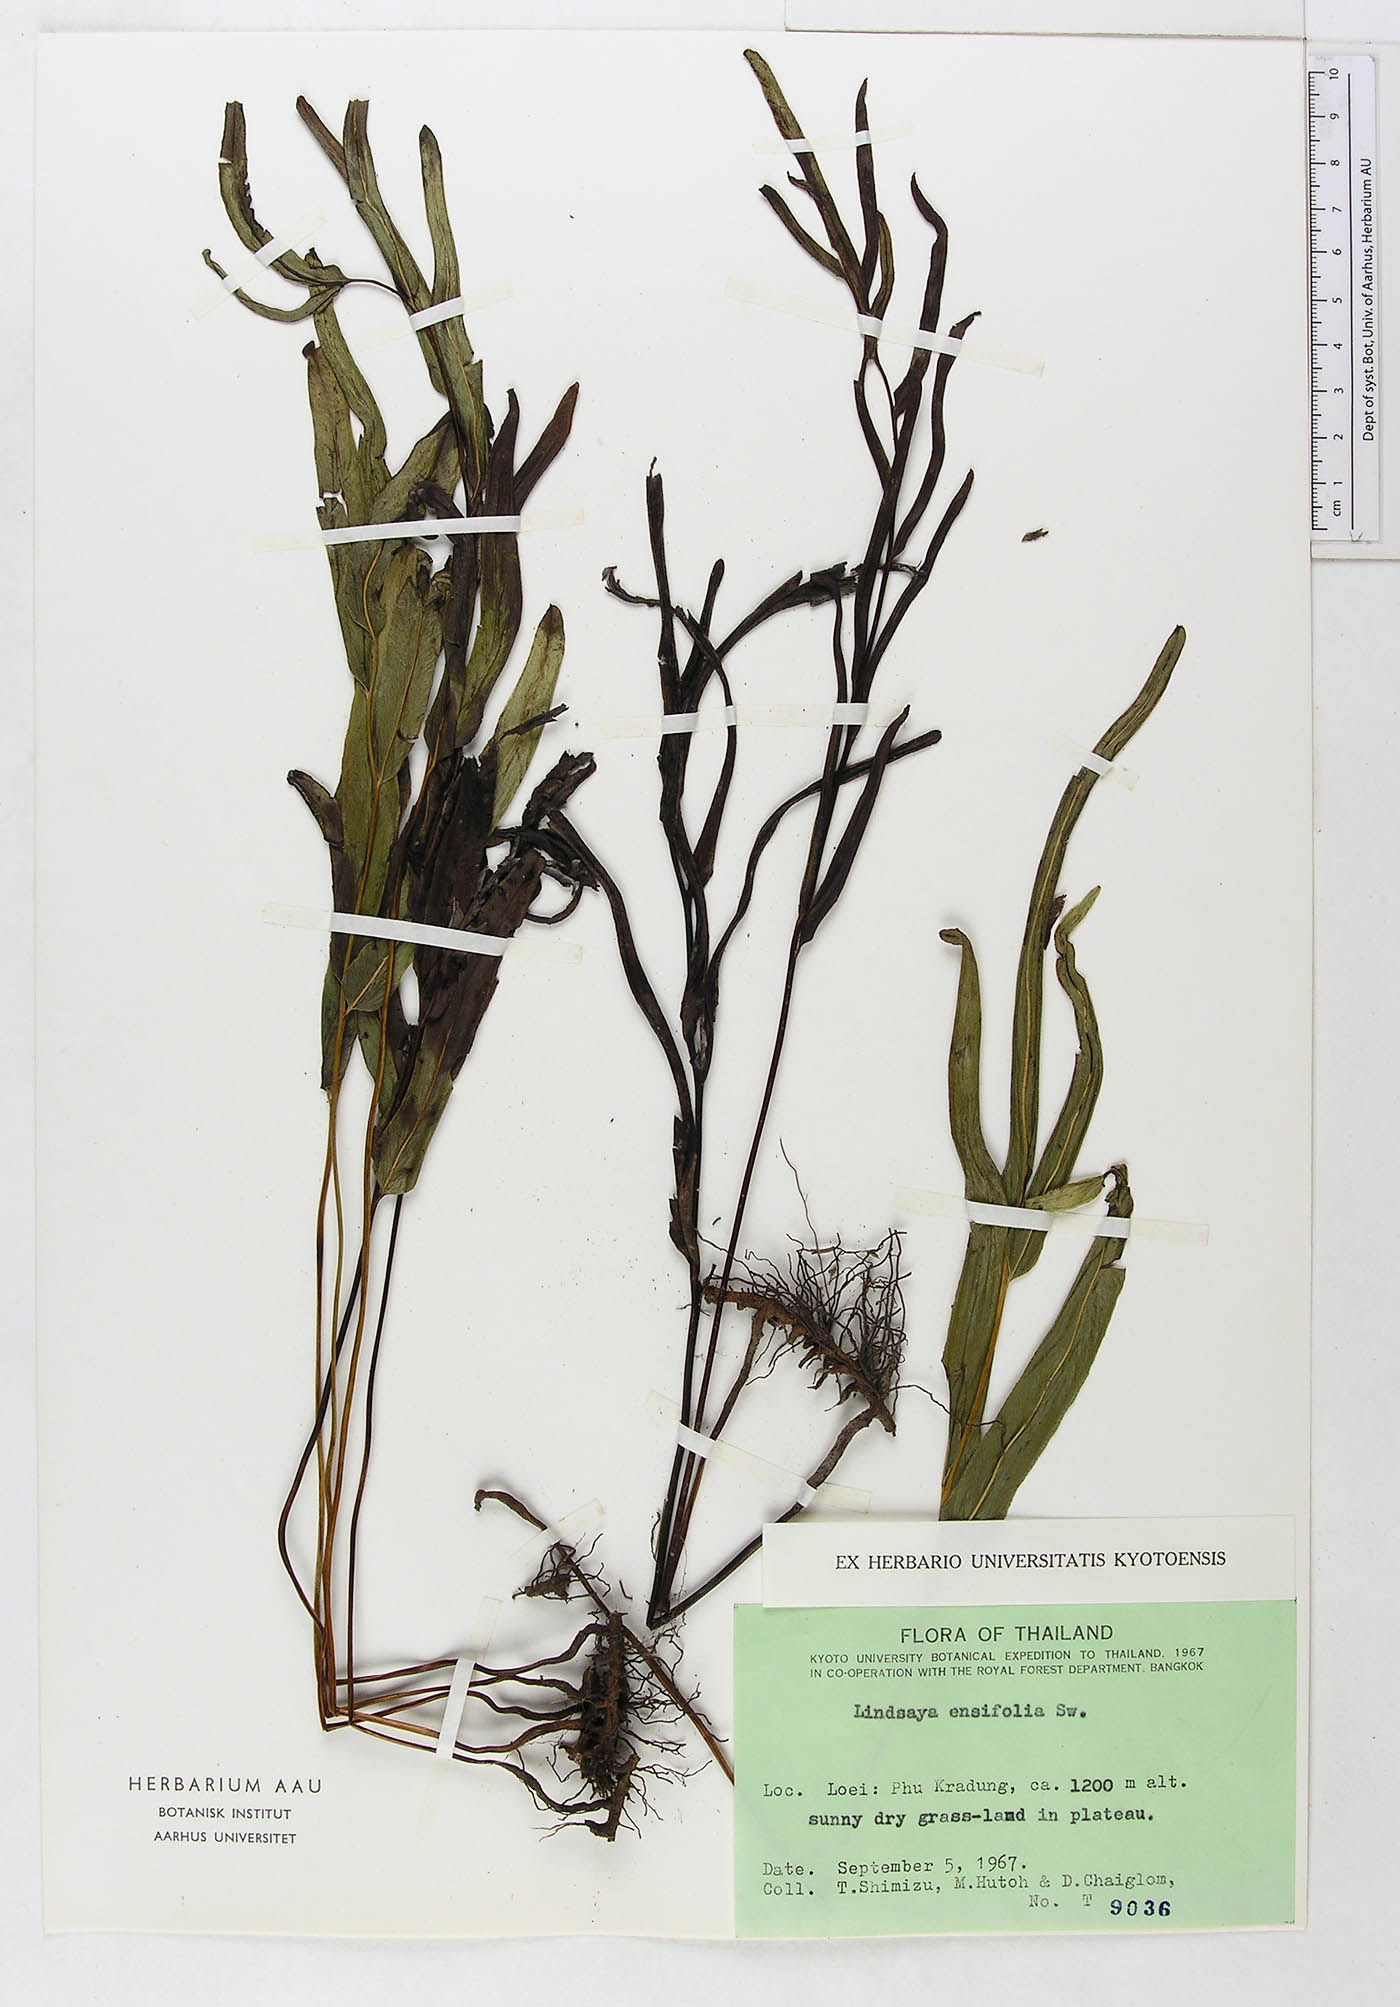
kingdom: Plantae
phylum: Tracheophyta
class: Polypodiopsida
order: Polypodiales
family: Lindsaeaceae
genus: Lindsaea
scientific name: Lindsaea ensifolia
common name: Graceful necklace fern
